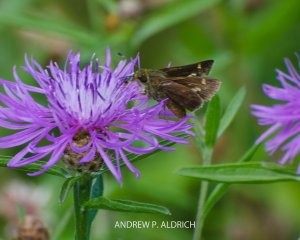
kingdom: Animalia
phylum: Arthropoda
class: Insecta
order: Lepidoptera
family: Hesperiidae
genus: Vernia
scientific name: Vernia verna
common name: Little Glassywing
